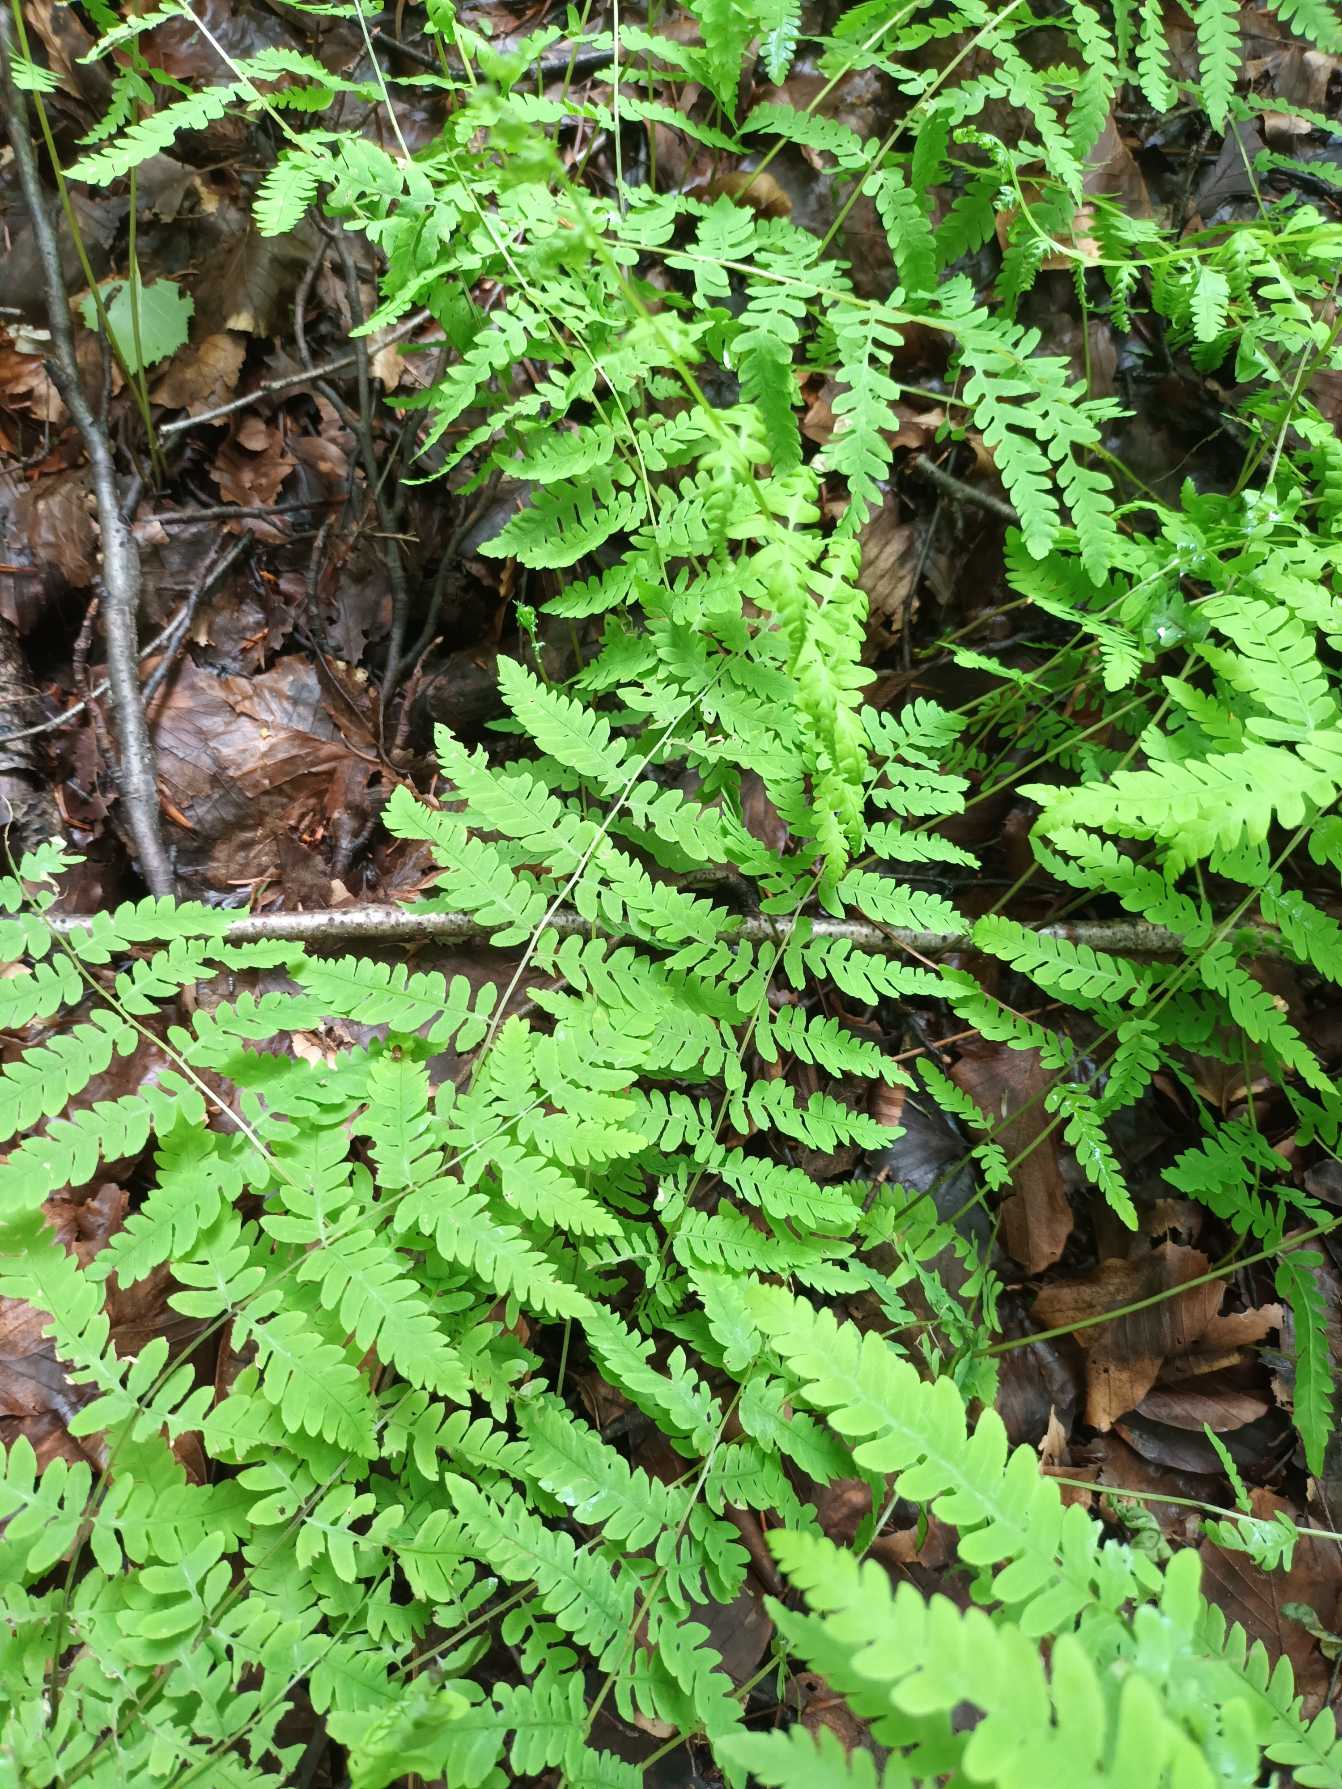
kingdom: Plantae
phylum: Tracheophyta
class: Polypodiopsida
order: Polypodiales
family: Thelypteridaceae
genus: Thelypteris
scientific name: Thelypteris palustris
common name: Kærmangeløv
